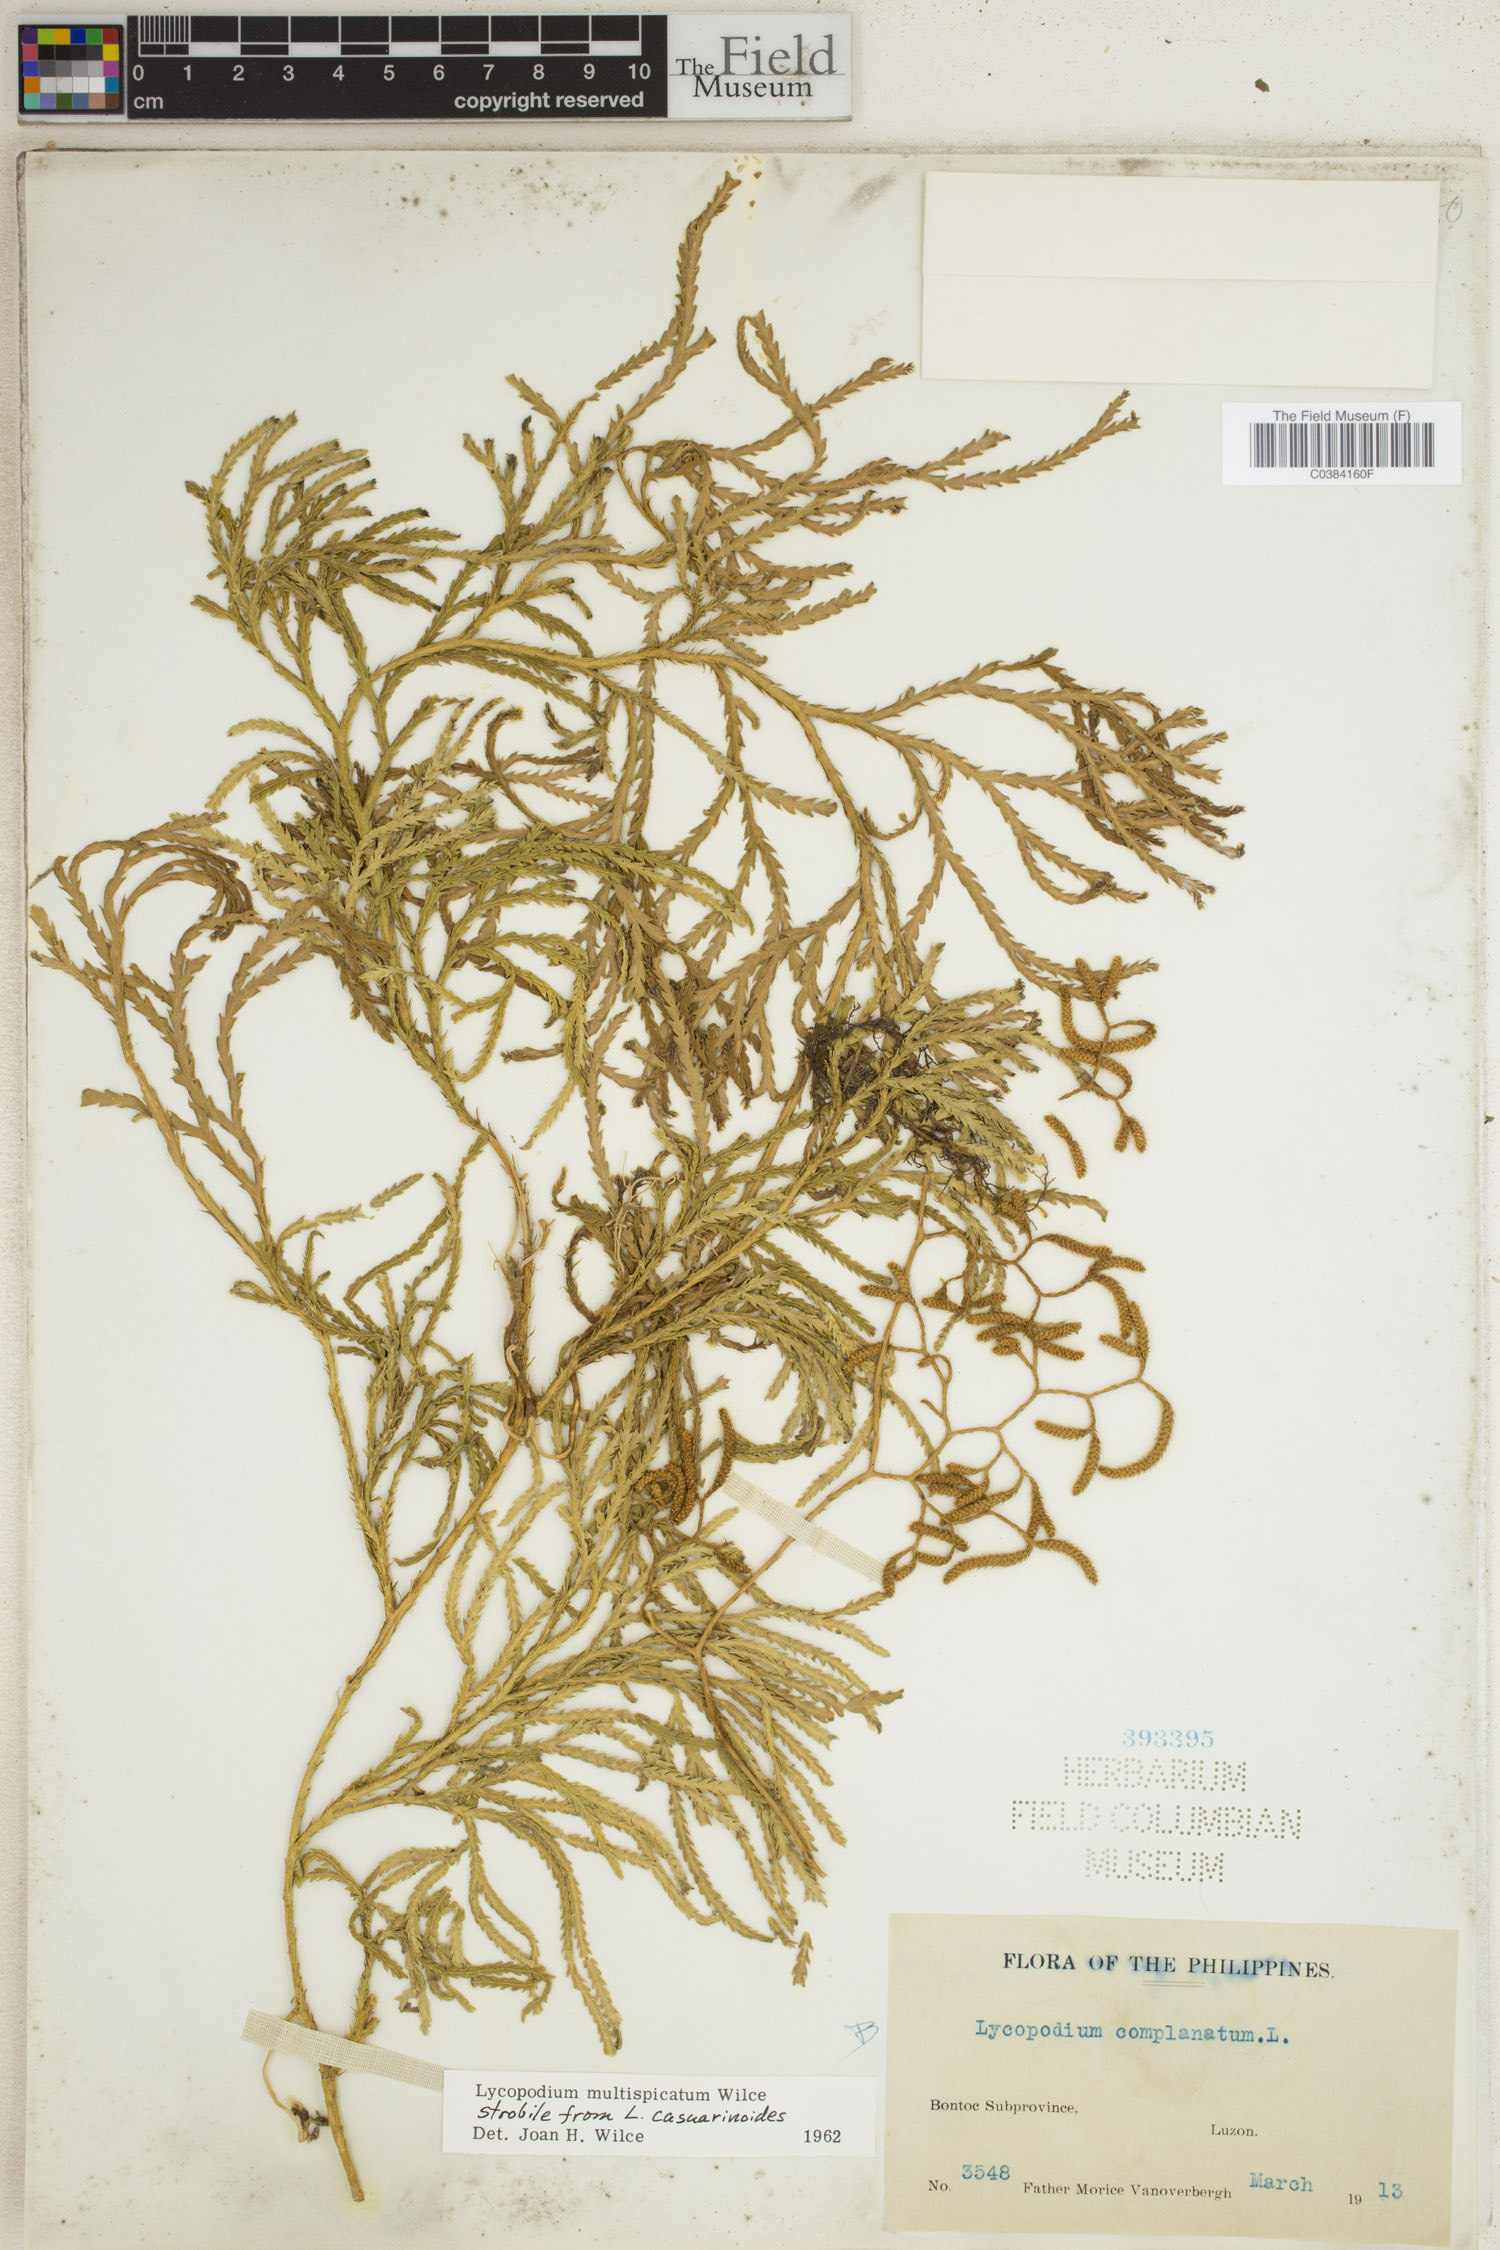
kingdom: Plantae
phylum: Tracheophyta
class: Lycopodiopsida
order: Lycopodiales
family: Lycopodiaceae
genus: Diphasiastrum
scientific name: Diphasiastrum multispicatum
